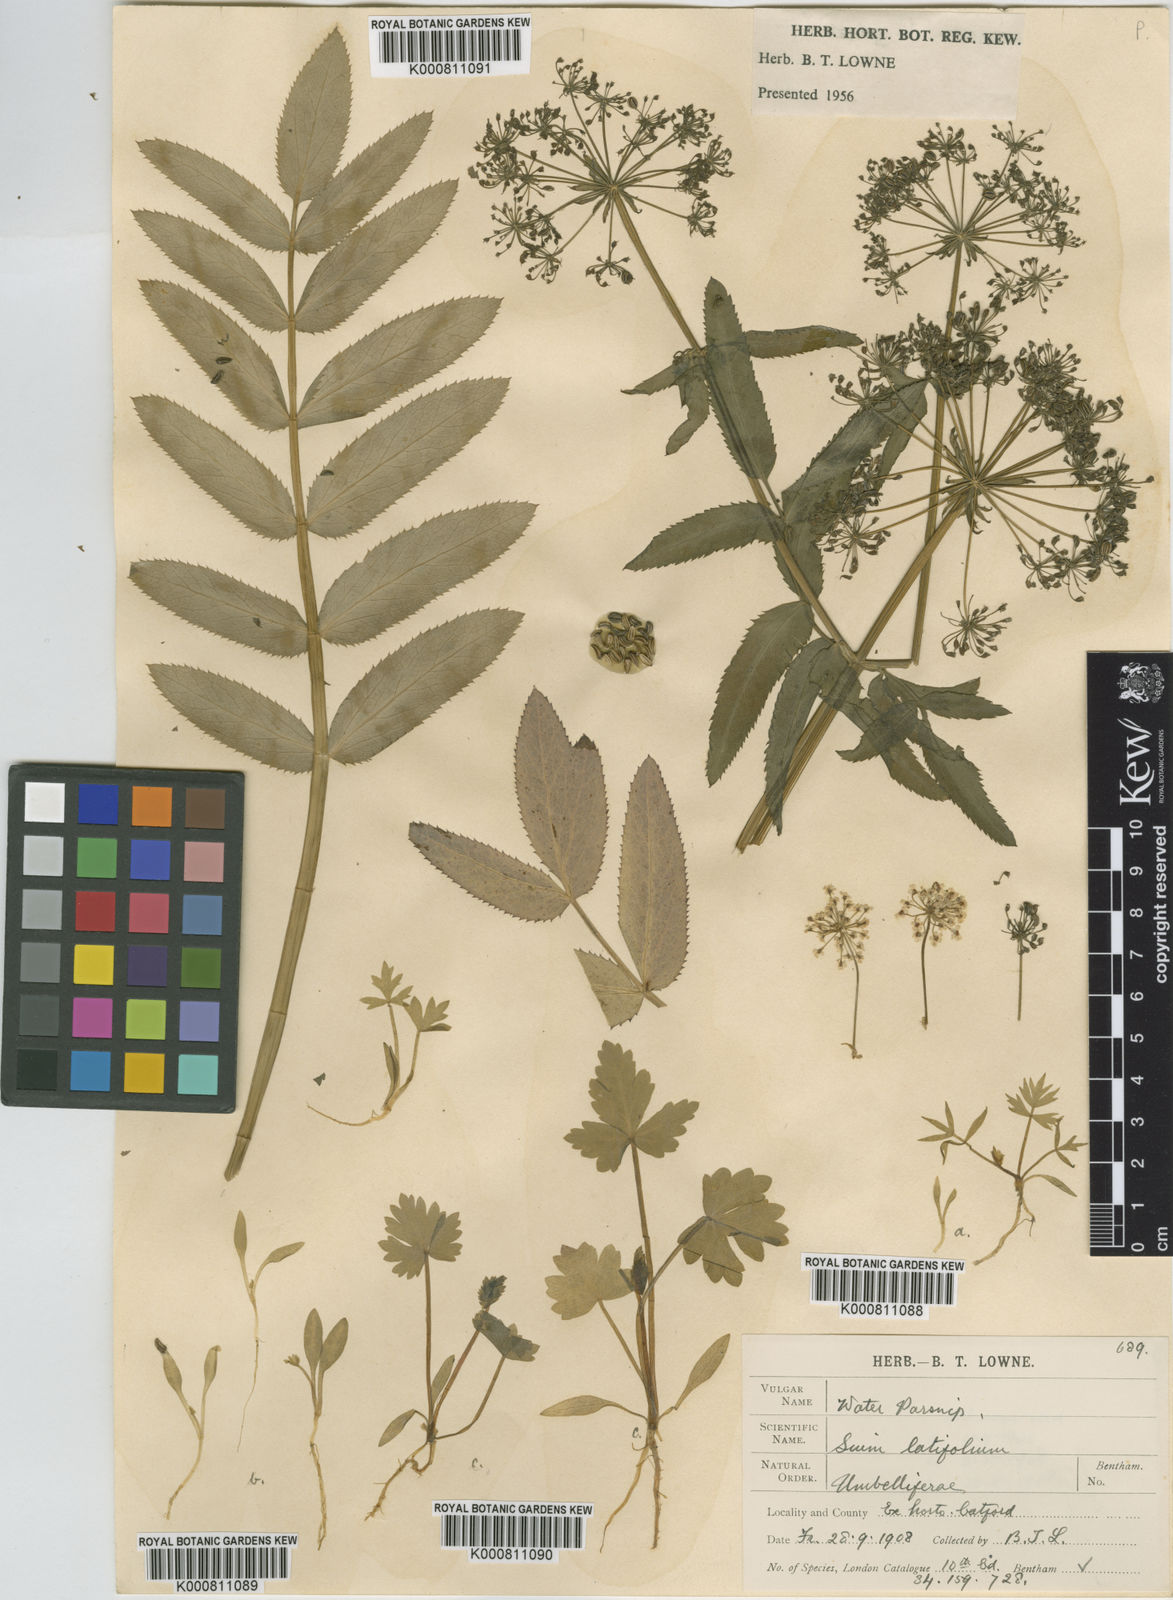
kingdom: Plantae
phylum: Tracheophyta
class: Magnoliopsida
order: Apiales
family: Apiaceae
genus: Sium
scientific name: Sium latifolium
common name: Greater water-parsnip
